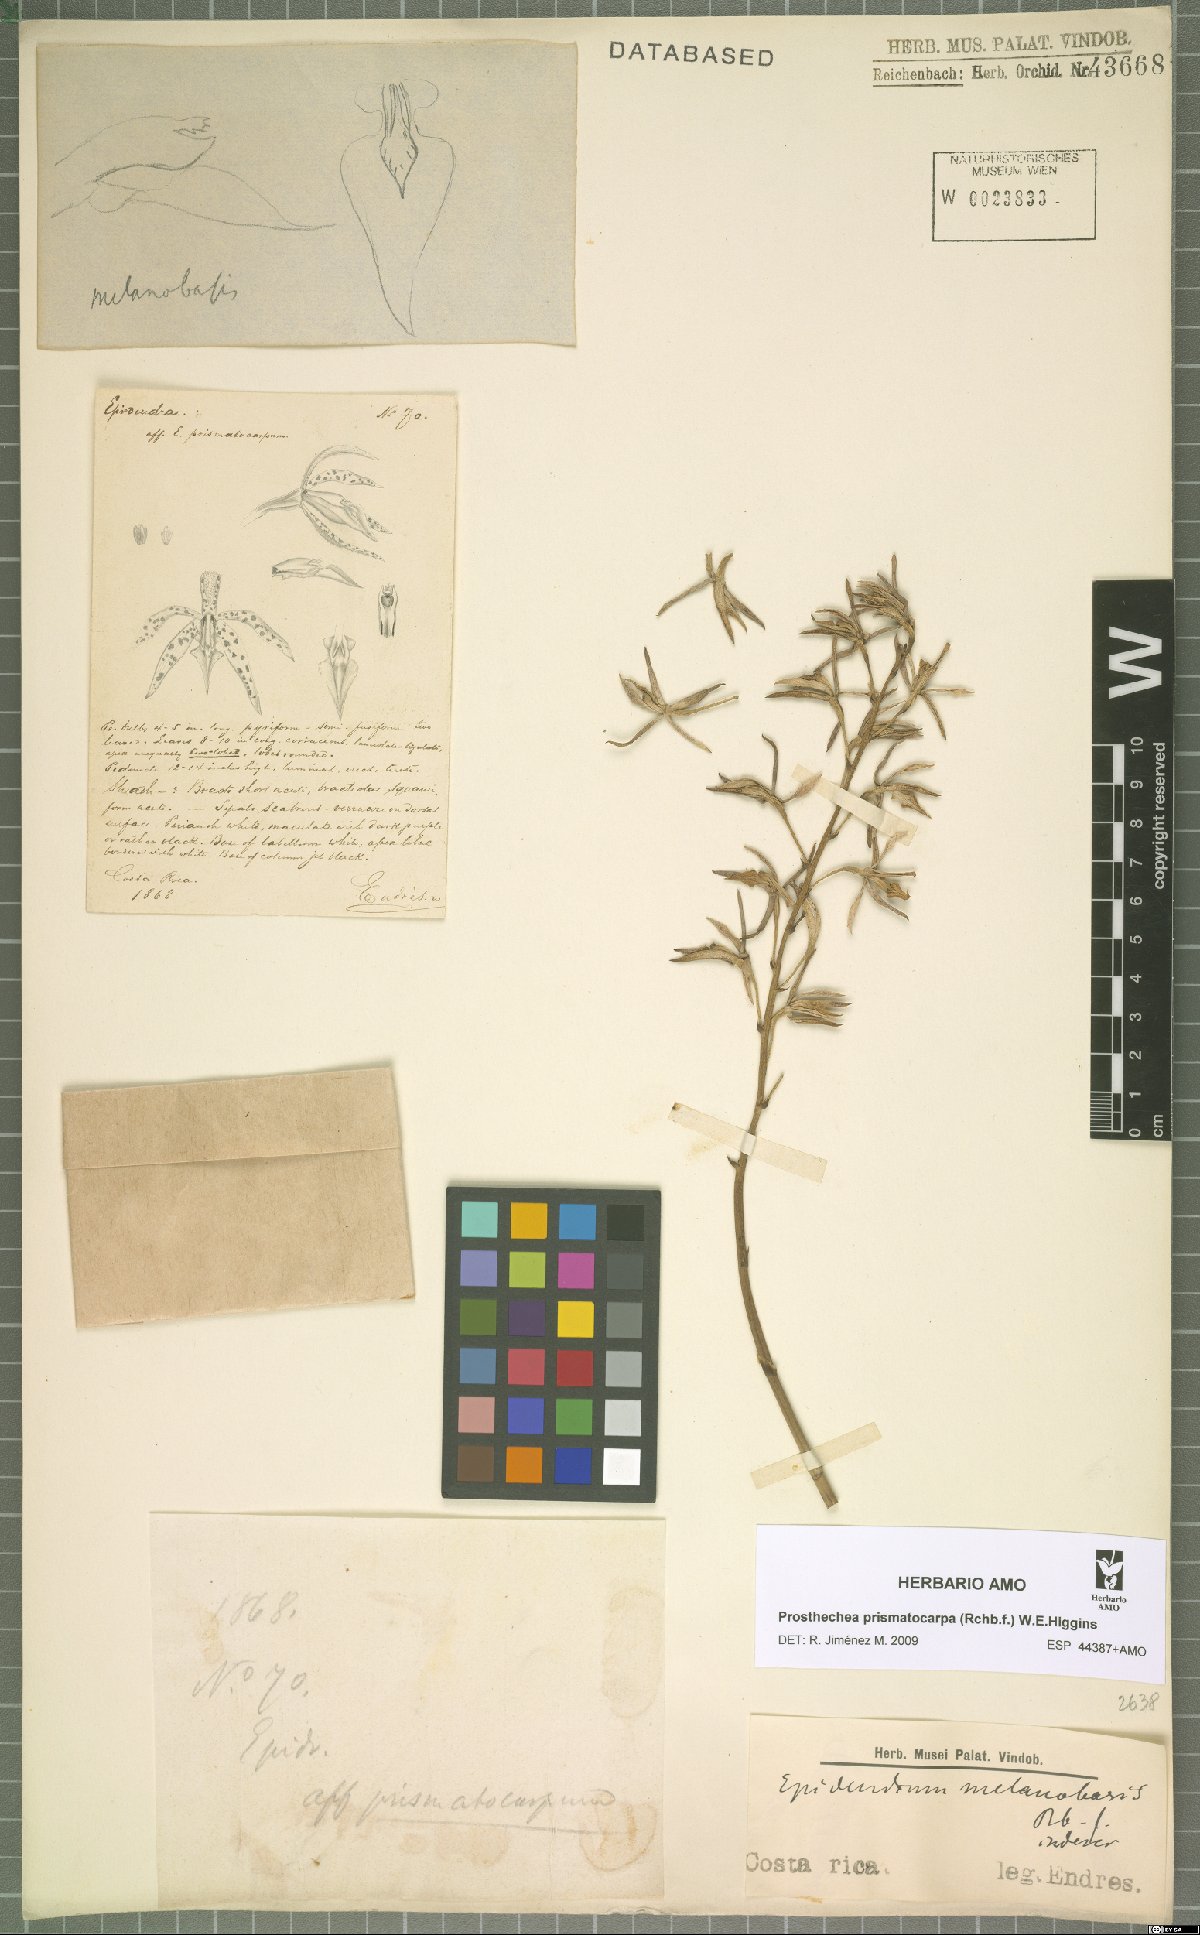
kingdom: Plantae
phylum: Tracheophyta
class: Liliopsida
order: Asparagales
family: Orchidaceae
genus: Prosthechea
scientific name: Prosthechea prismatocarpa
